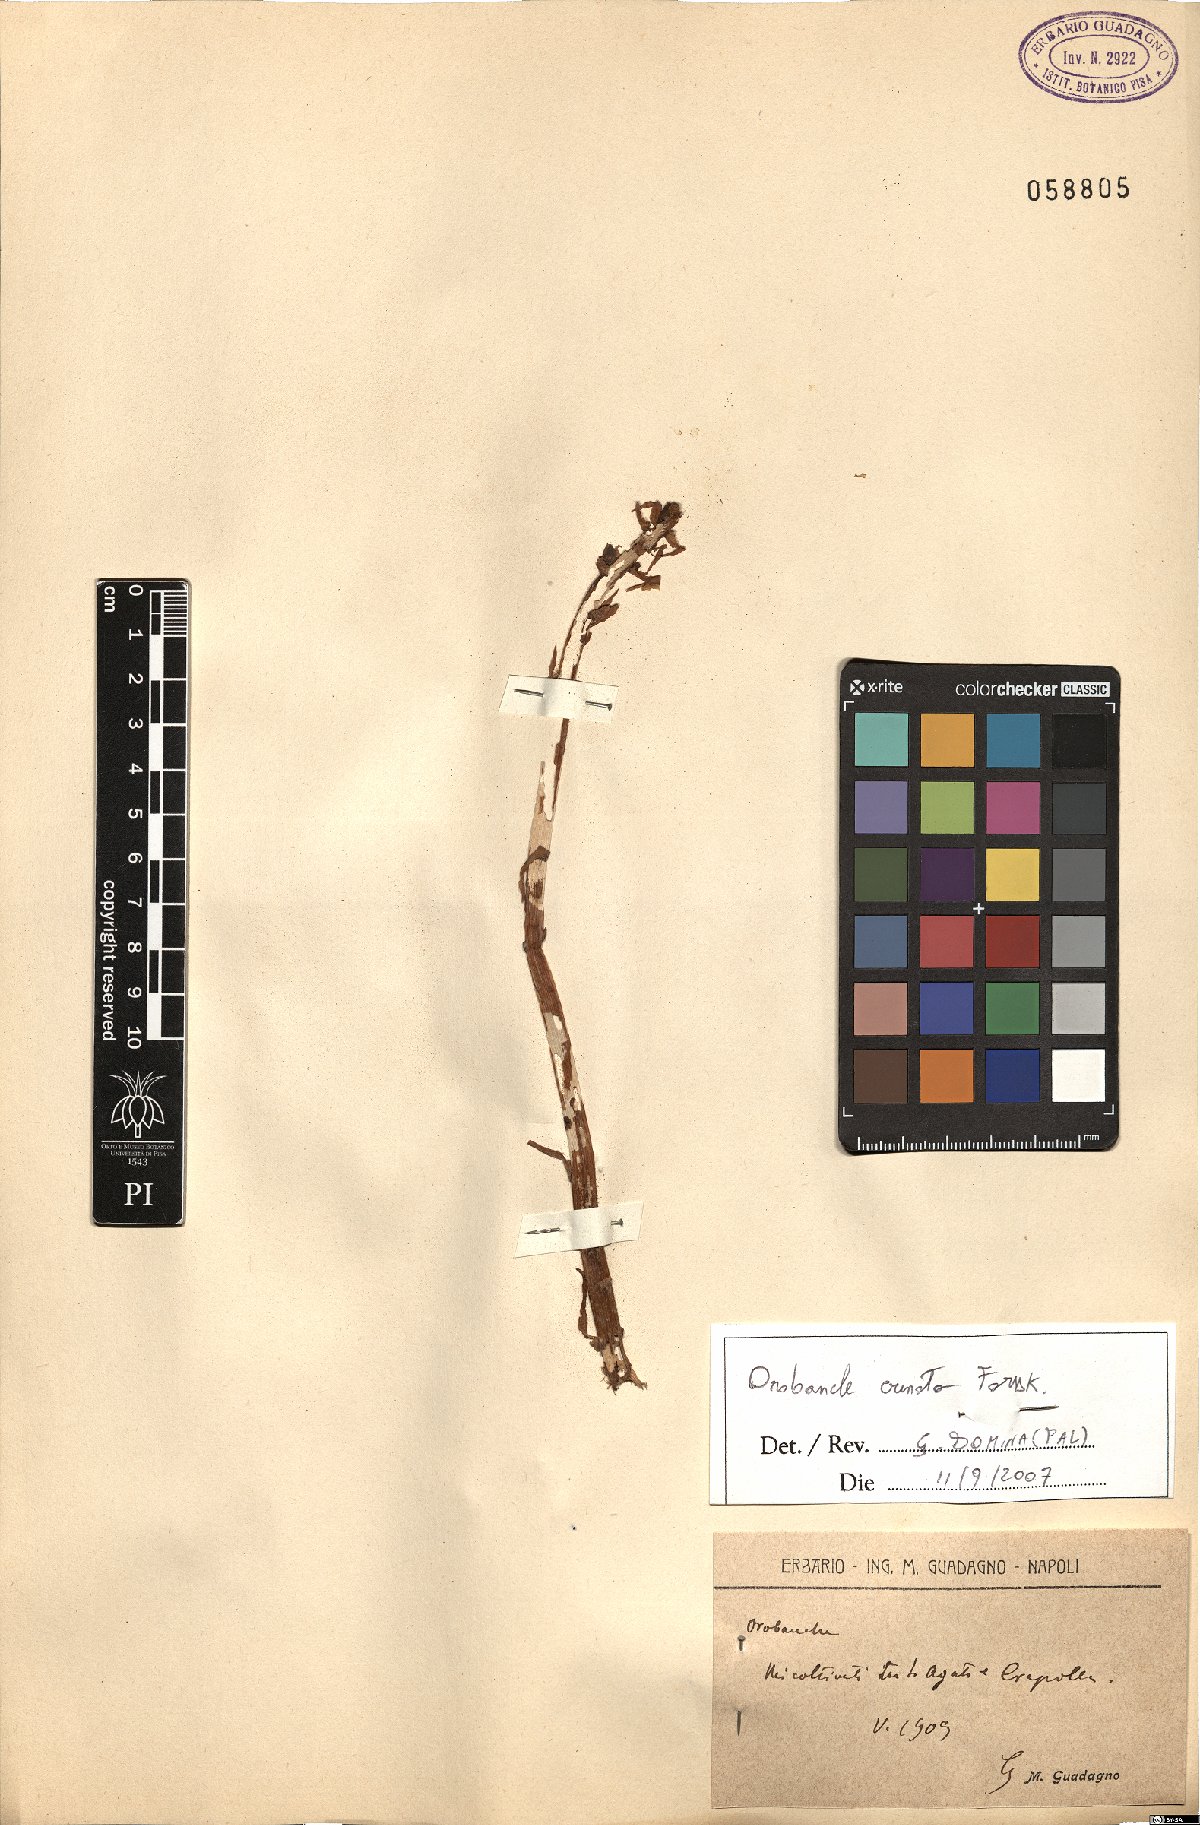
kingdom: Plantae
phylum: Tracheophyta
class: Magnoliopsida
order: Lamiales
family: Orobanchaceae
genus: Orobanche
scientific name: Orobanche crenata
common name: Bean broomrape
